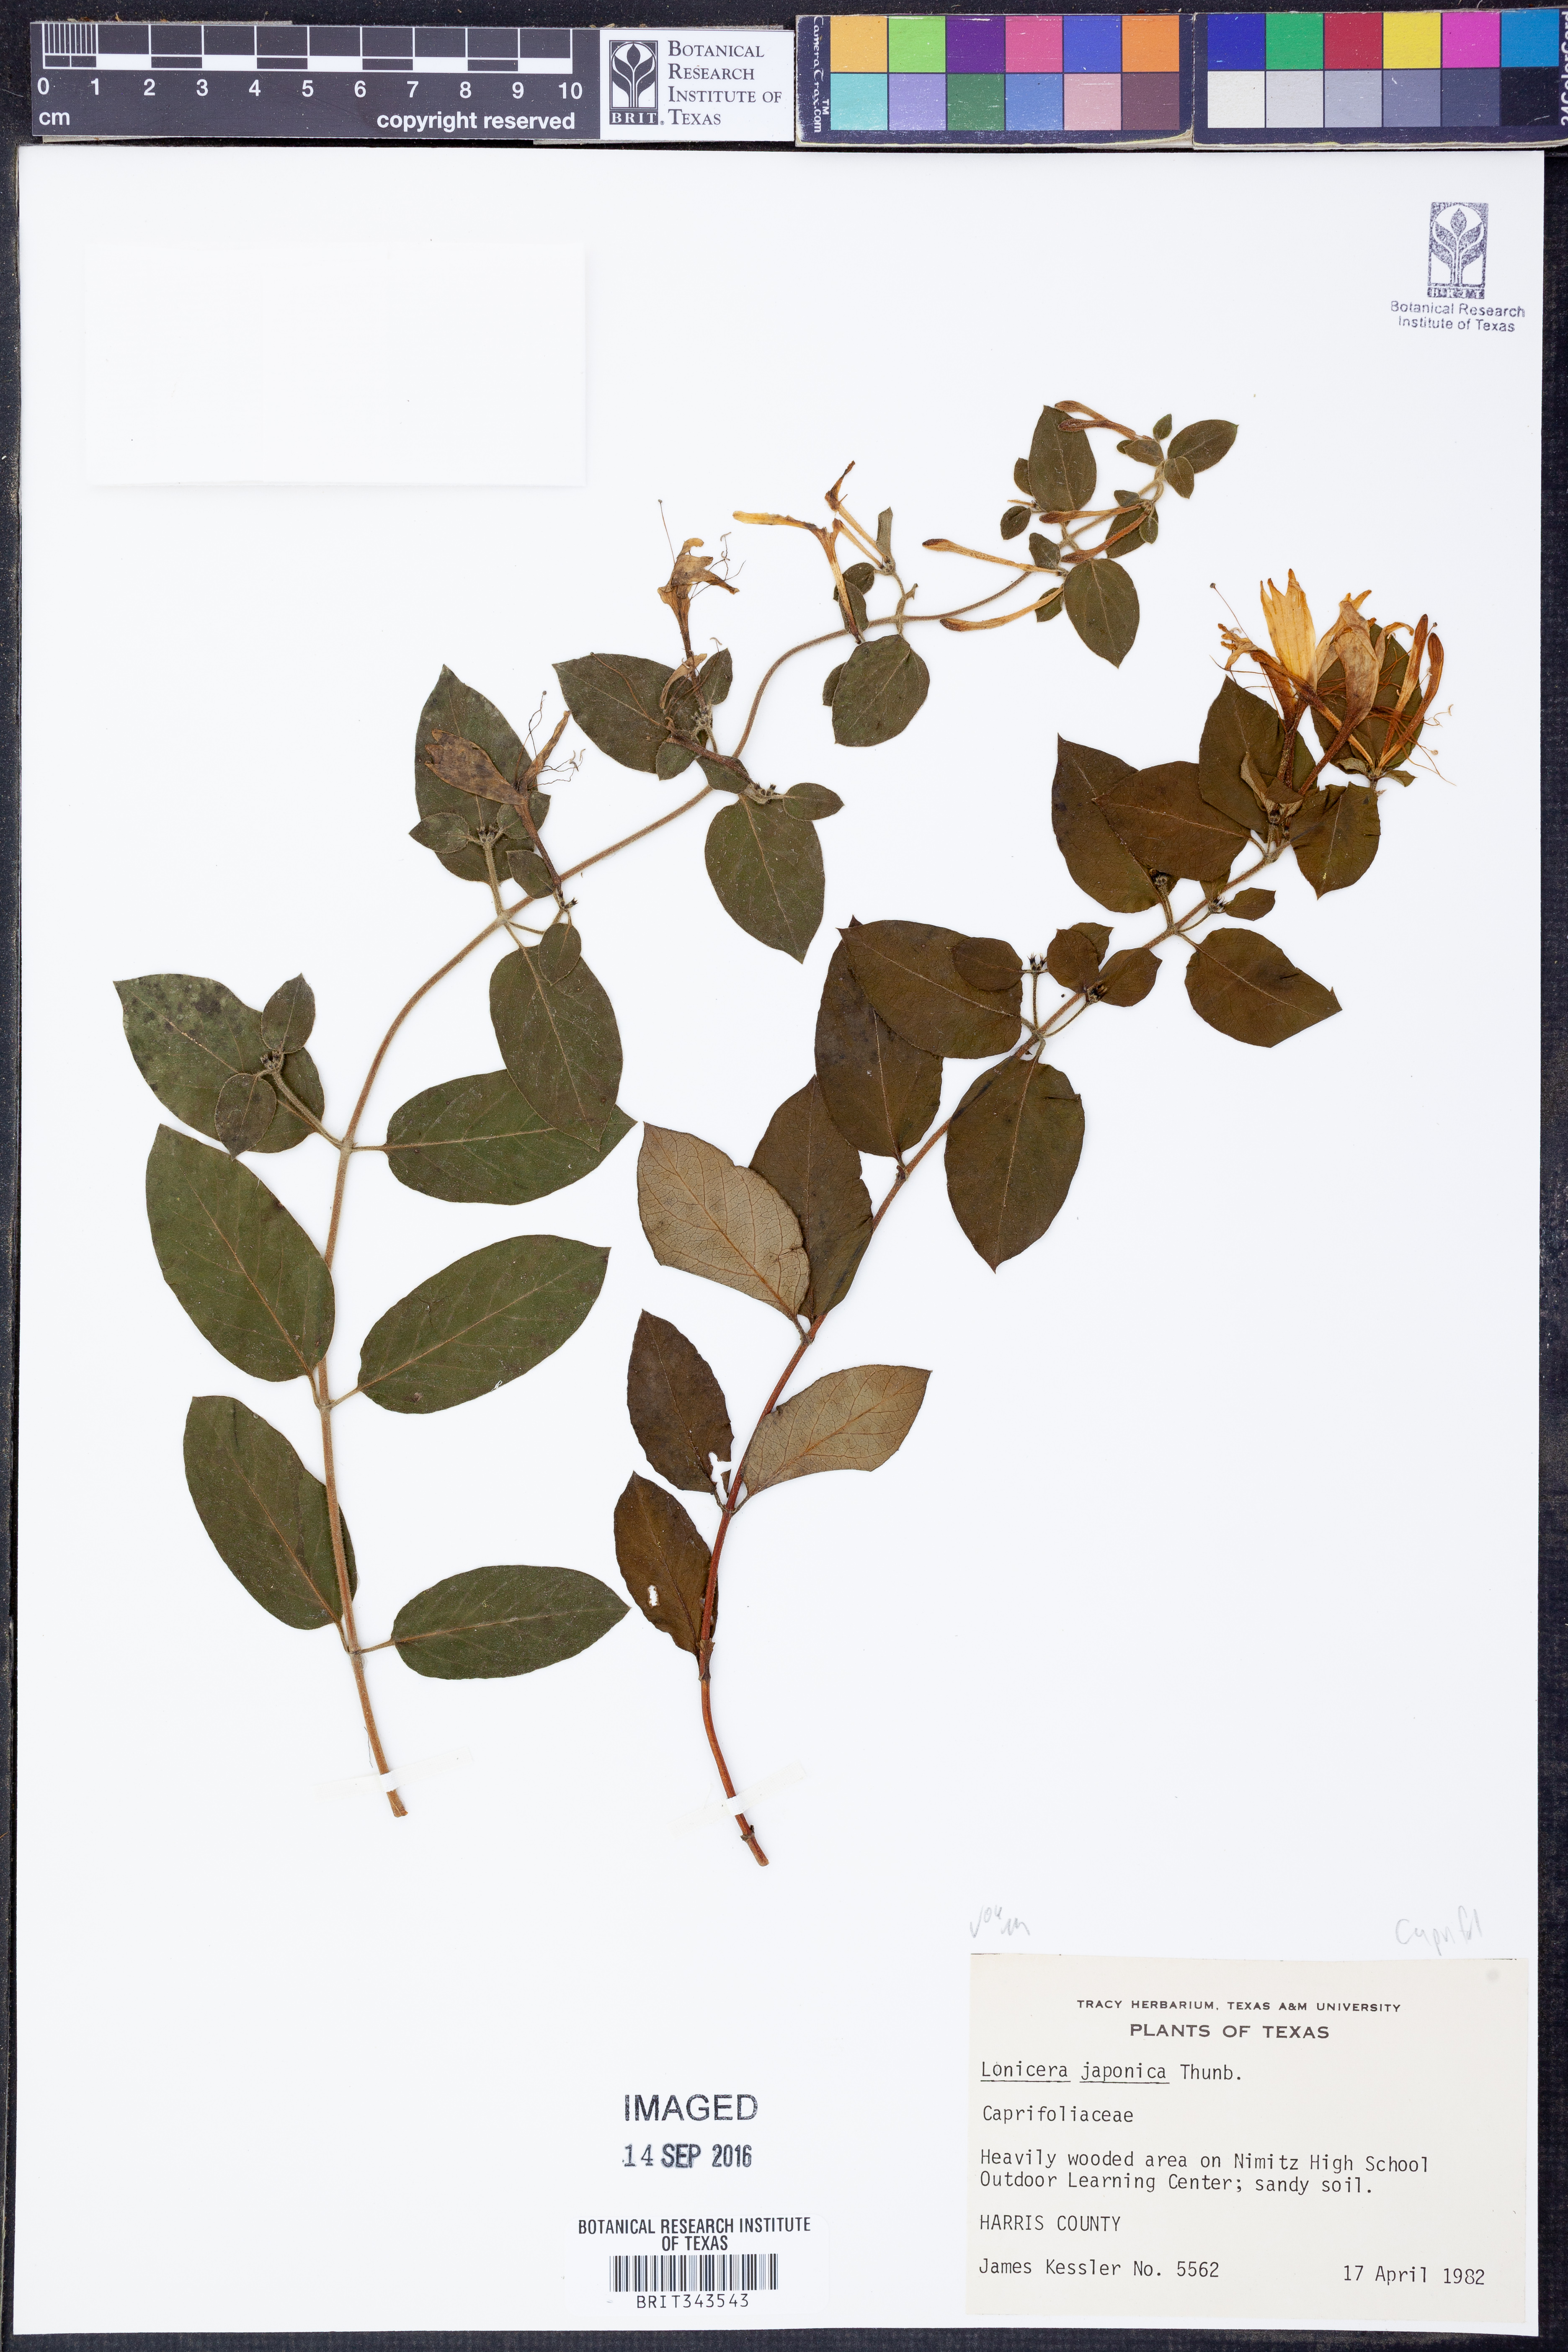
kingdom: Plantae
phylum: Tracheophyta
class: Magnoliopsida
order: Dipsacales
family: Caprifoliaceae
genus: Lonicera
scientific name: Lonicera japonica
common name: Japanese honeysuckle
